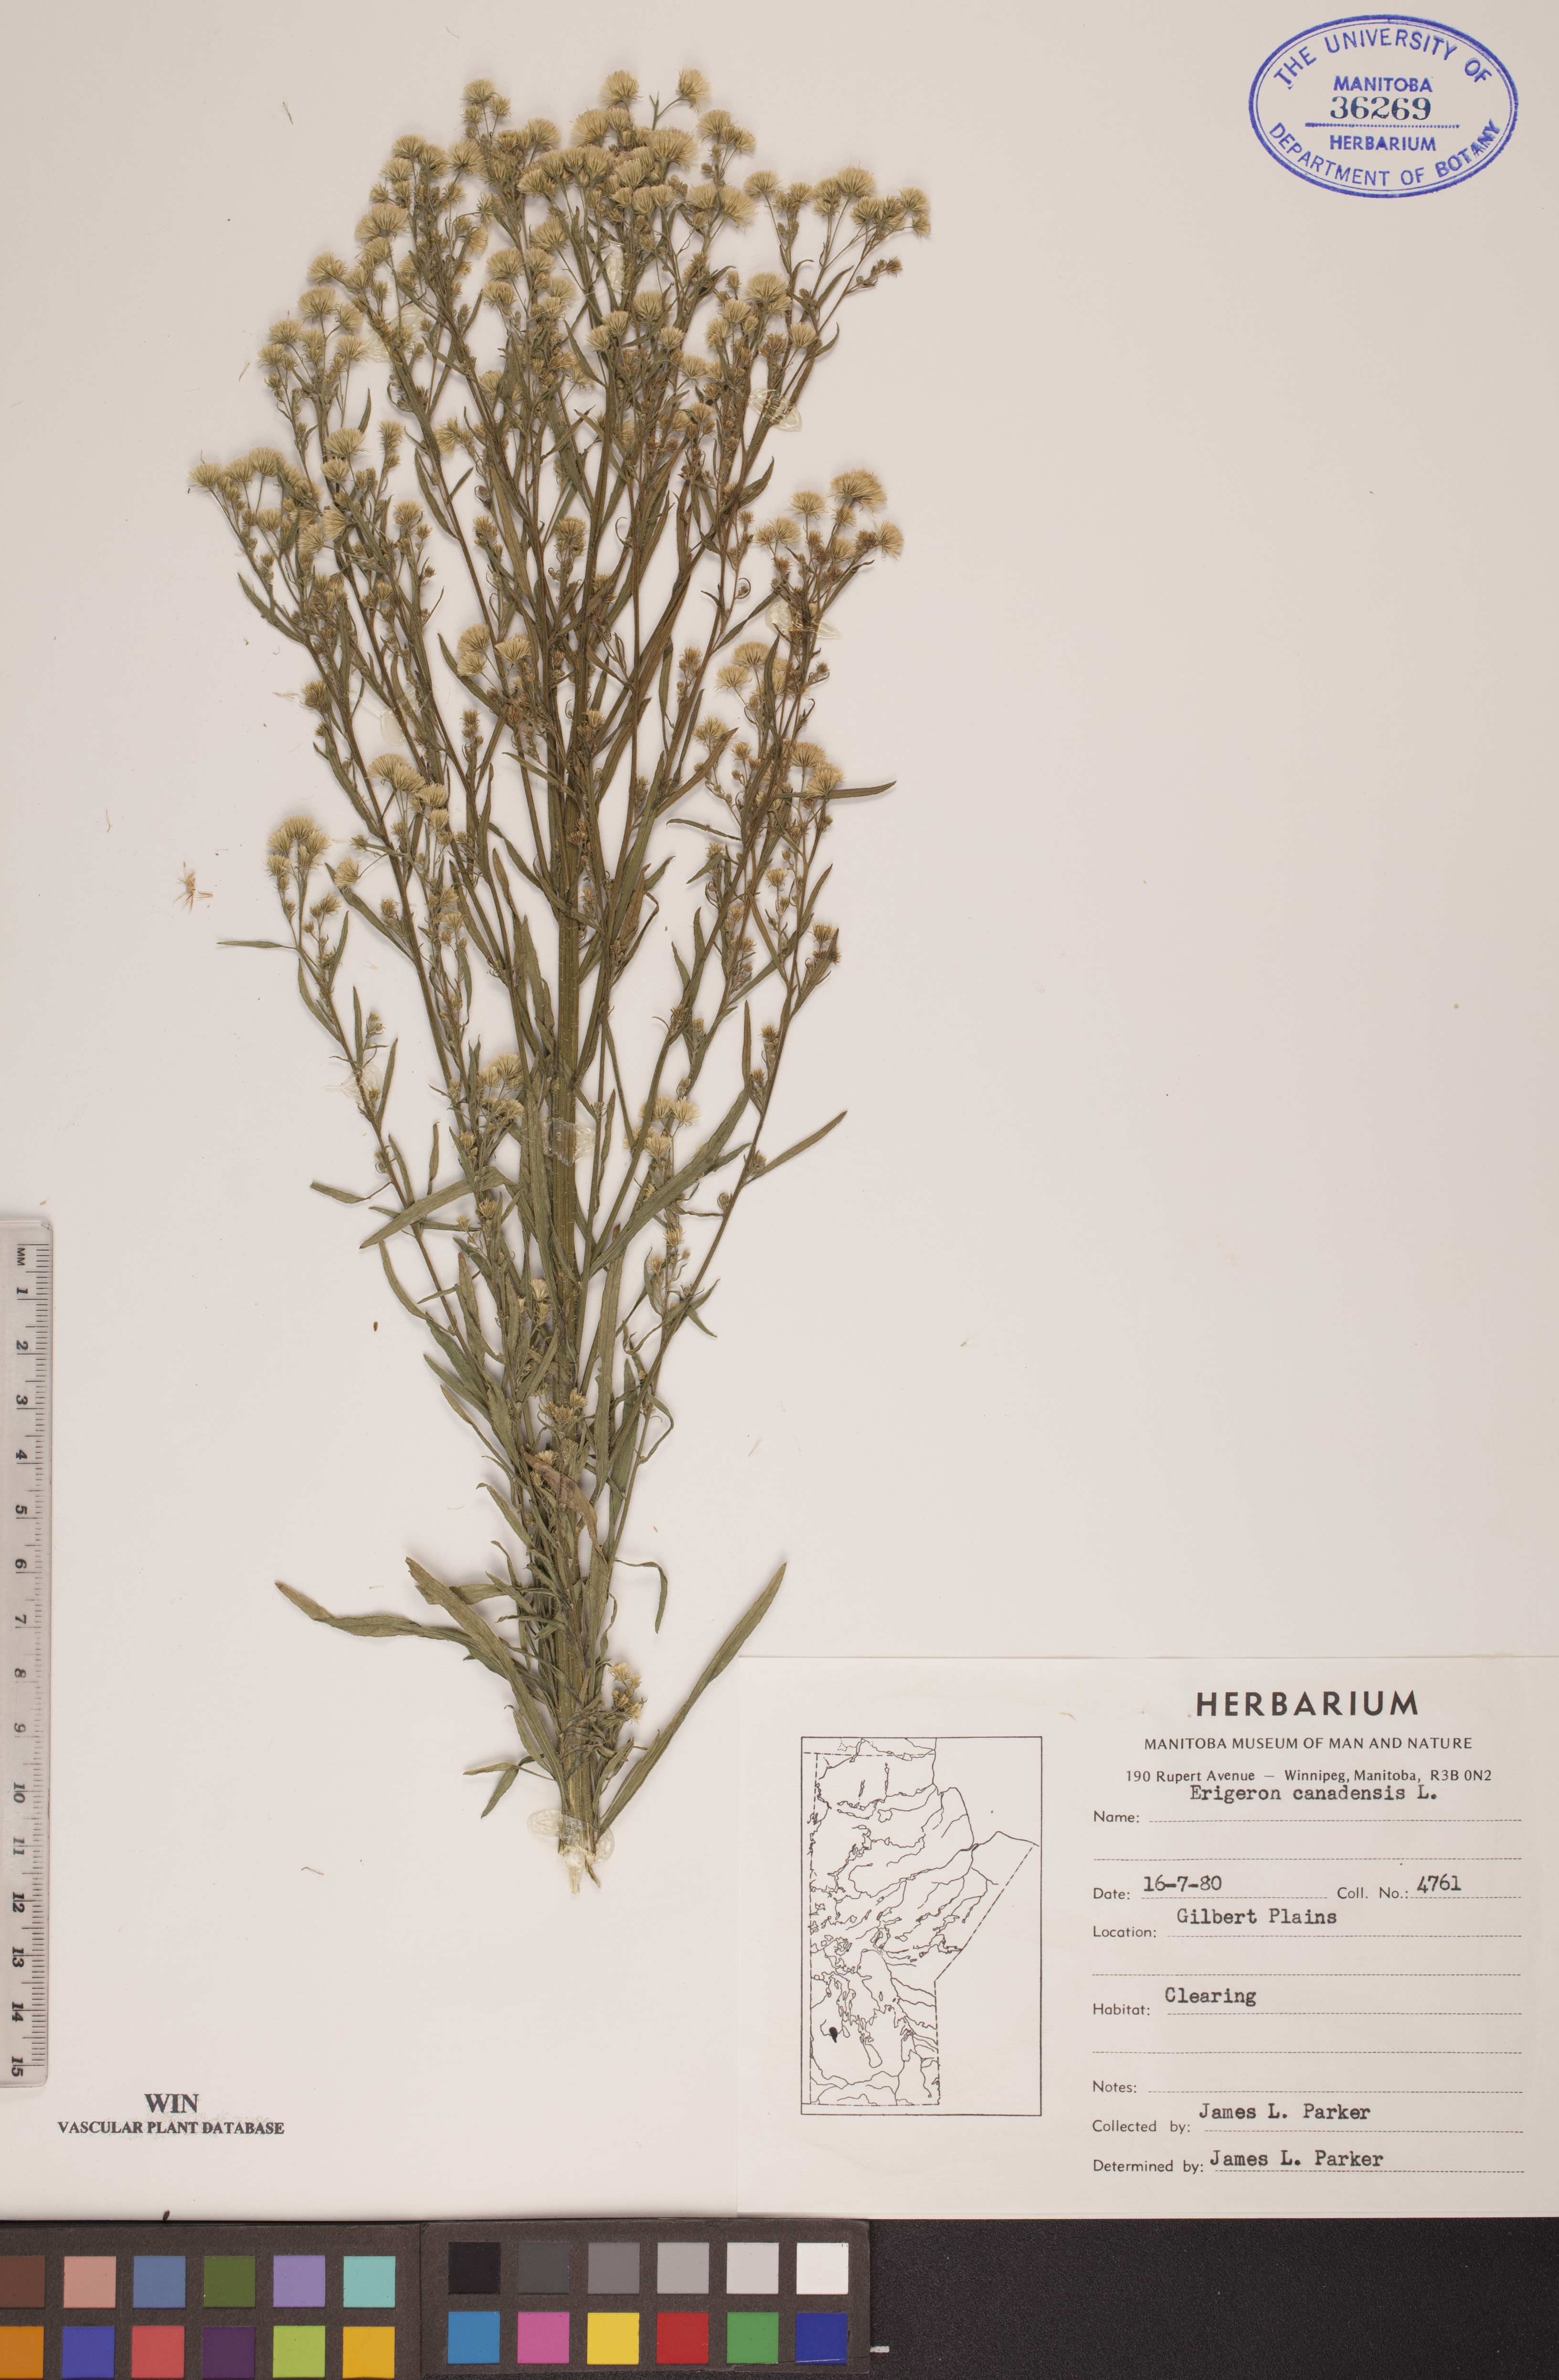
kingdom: Plantae
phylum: Tracheophyta
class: Magnoliopsida
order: Asterales
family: Asteraceae
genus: Erigeron
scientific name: Erigeron canadensis
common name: Canadian fleabane
